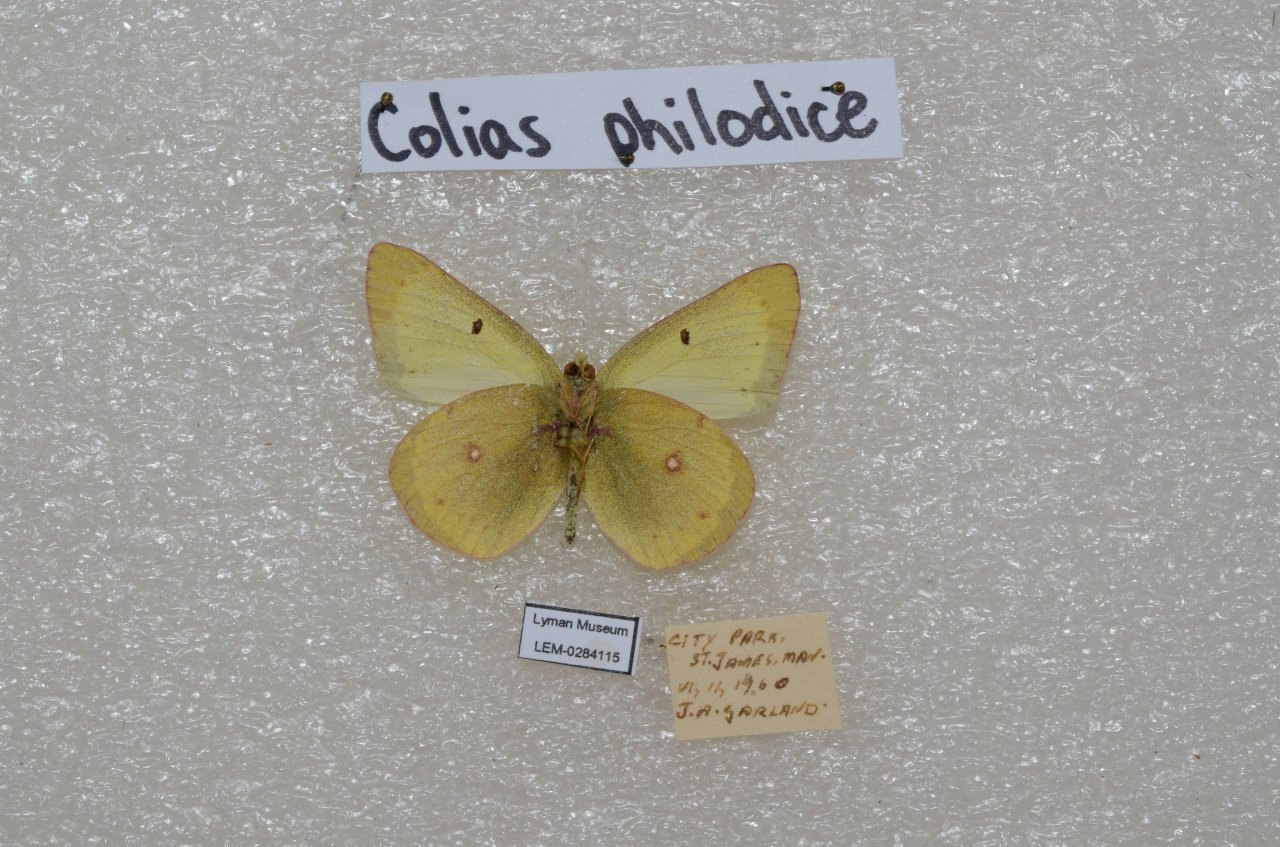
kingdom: Animalia
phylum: Arthropoda
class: Insecta
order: Lepidoptera
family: Pieridae
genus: Colias
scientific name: Colias philodice
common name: Clouded Sulphur
